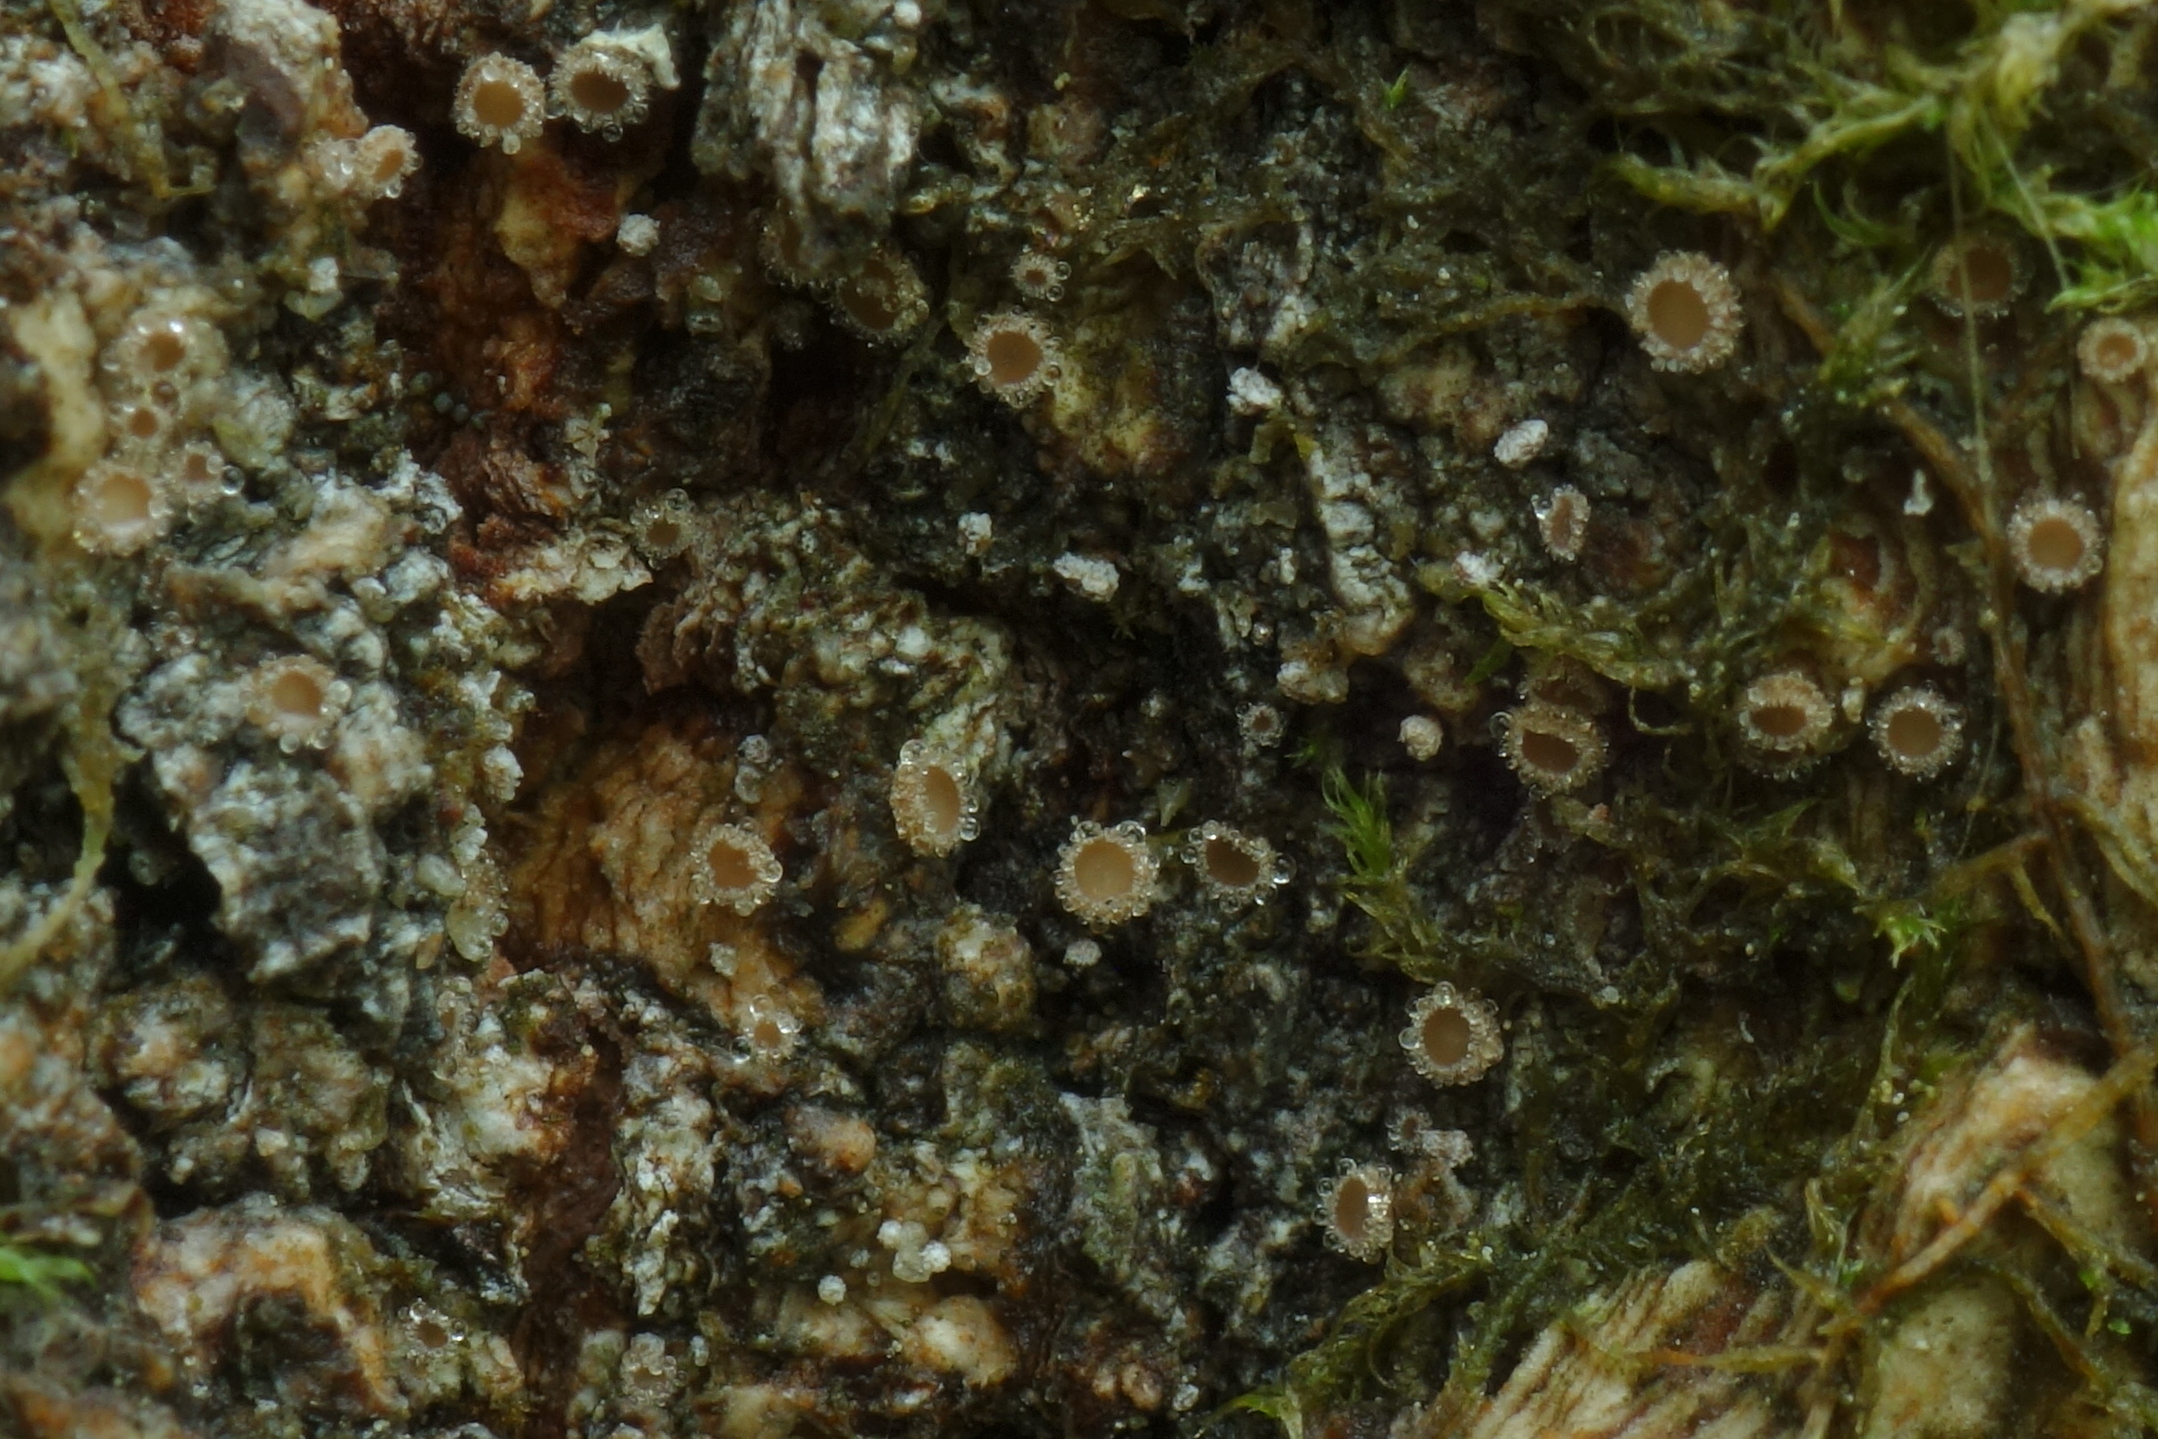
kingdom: Fungi
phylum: Ascomycota
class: Leotiomycetes
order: Helotiales
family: Lachnaceae
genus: Lachnum
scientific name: Lachnum corticale
